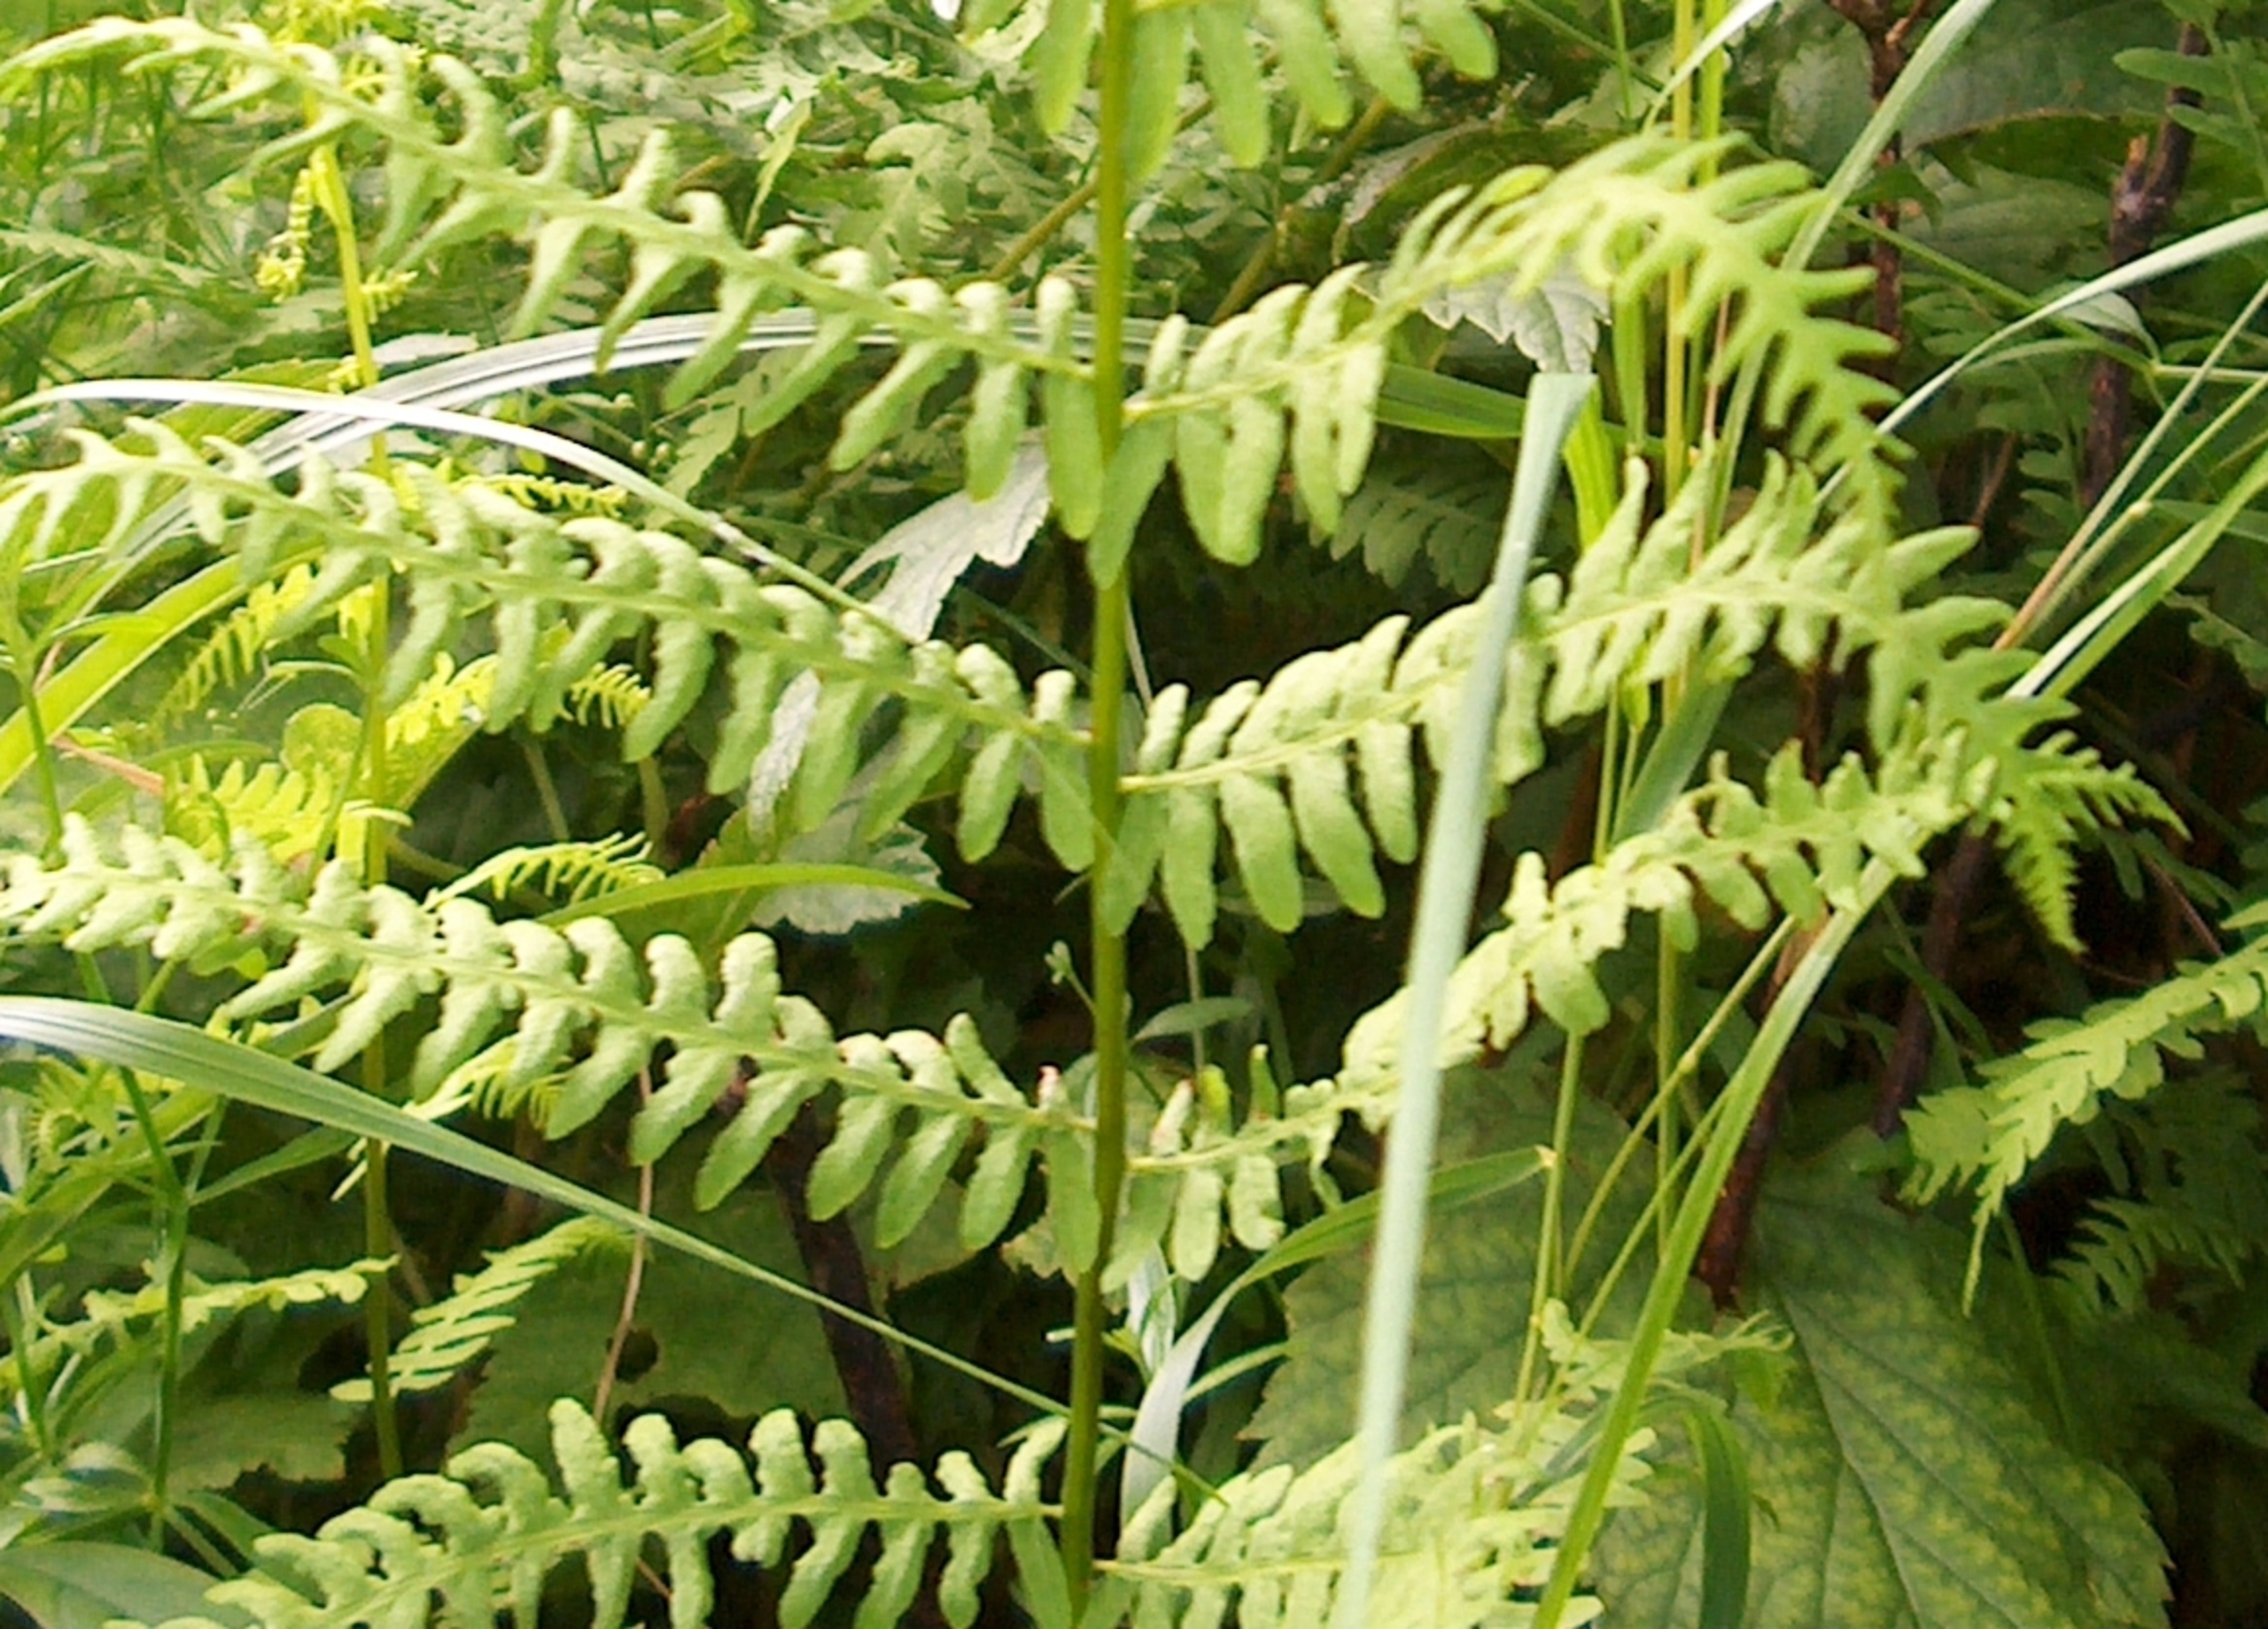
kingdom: Plantae
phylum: Tracheophyta
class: Polypodiopsida
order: Polypodiales
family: Thelypteridaceae
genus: Thelypteris
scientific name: Thelypteris palustris
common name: Kærmangeløv
